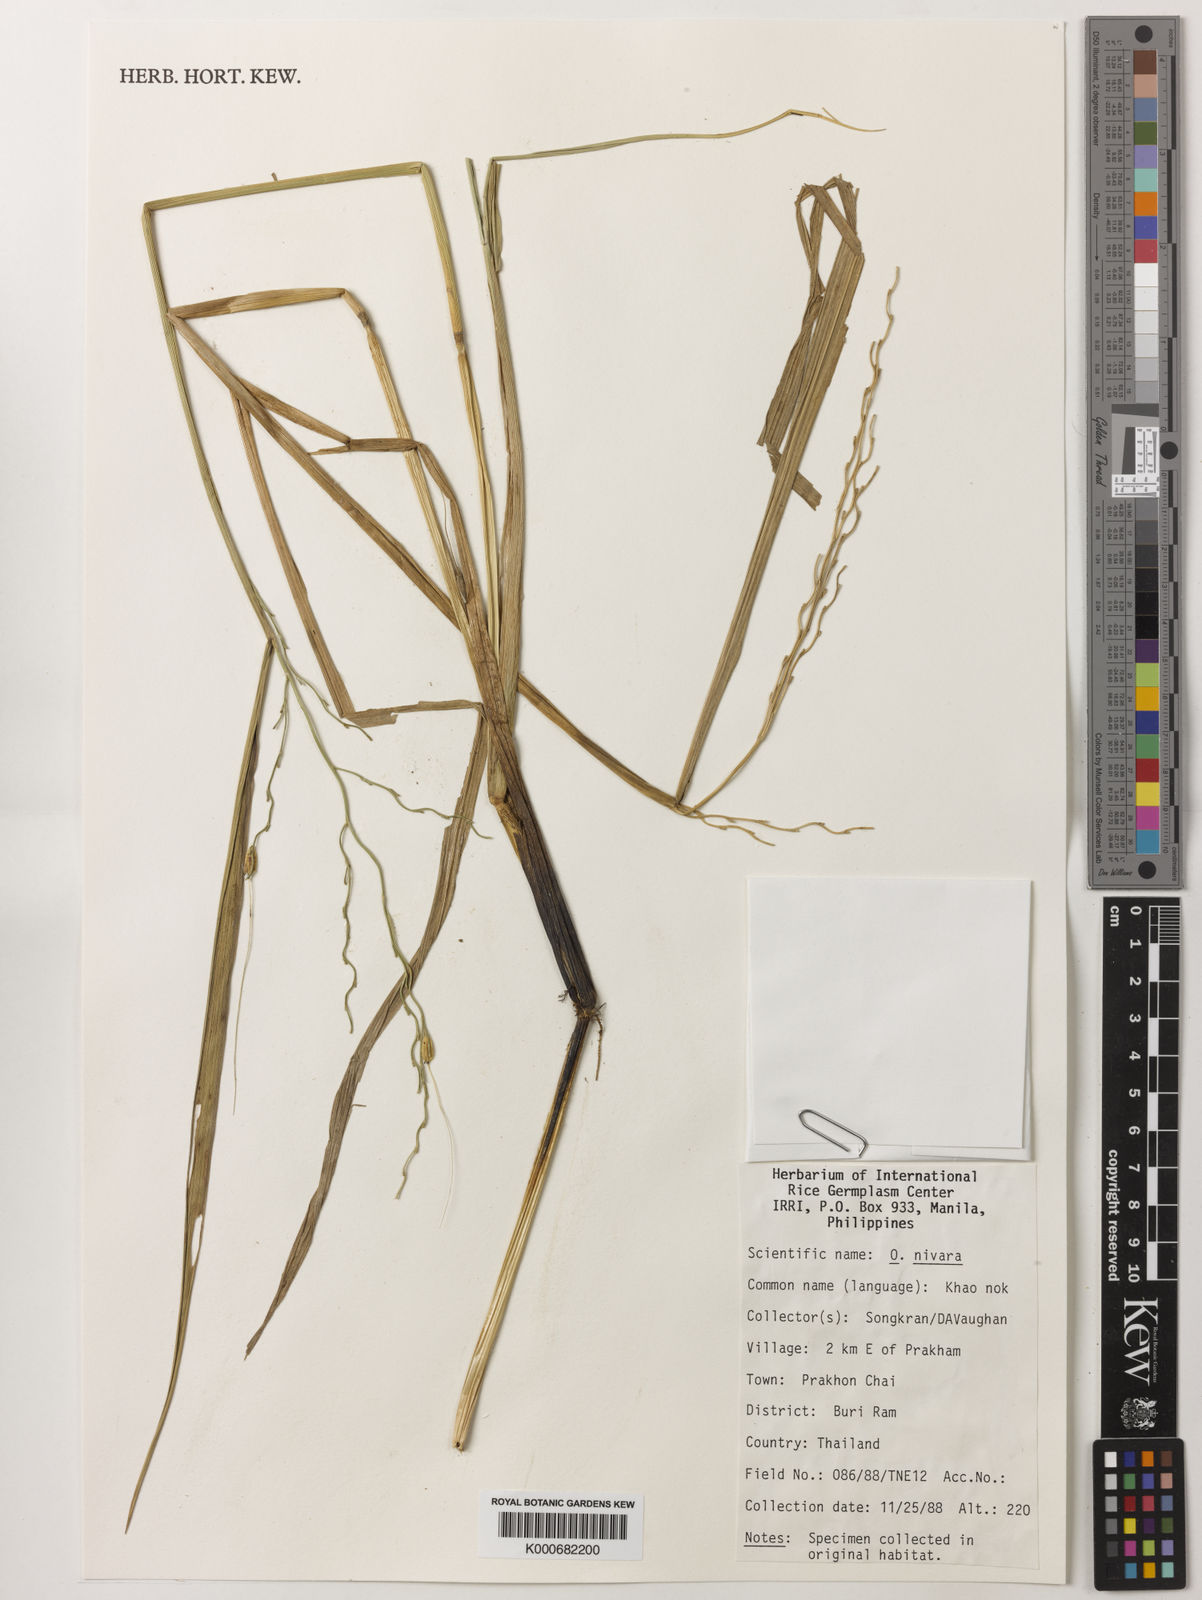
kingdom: Plantae
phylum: Tracheophyta
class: Liliopsida
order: Poales
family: Poaceae
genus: Oryza
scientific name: Oryza rufipogon
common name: Red rice
